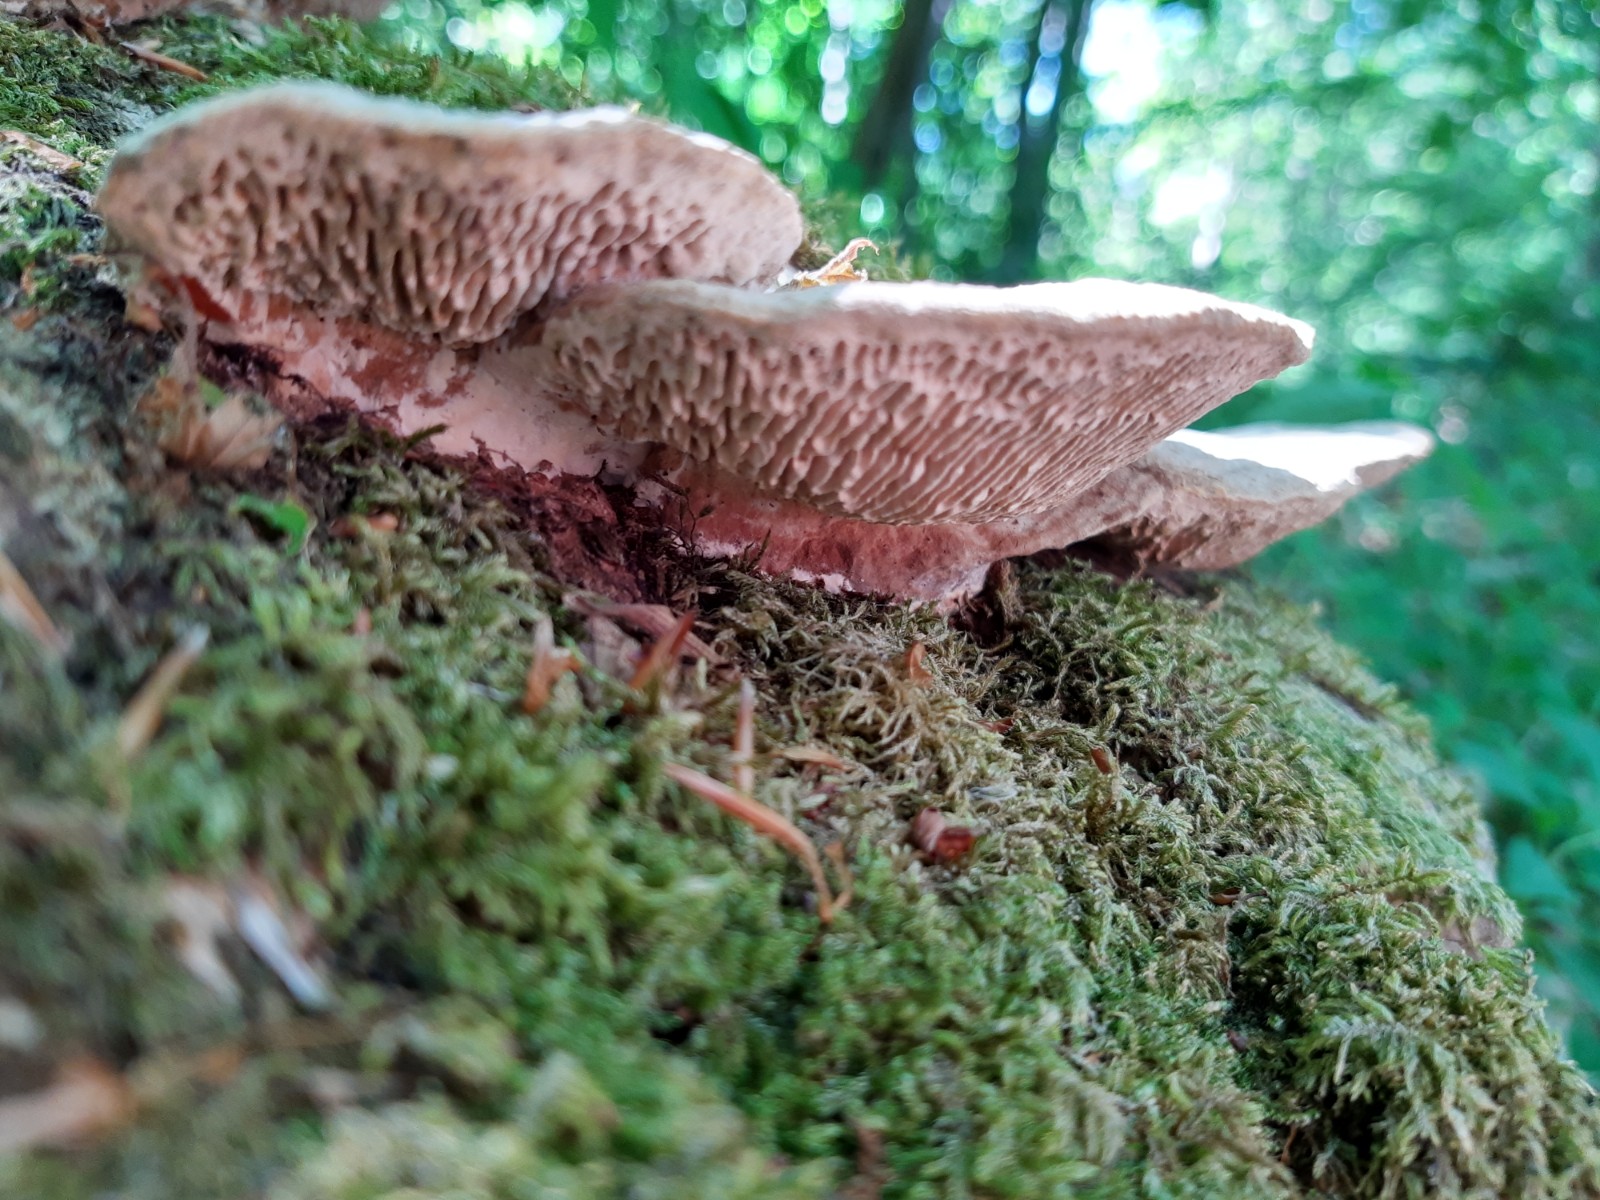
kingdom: Fungi
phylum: Basidiomycota
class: Agaricomycetes
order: Polyporales
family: Fomitopsidaceae
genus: Daedalea
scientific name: Daedalea quercina
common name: ege-labyrintsvamp
